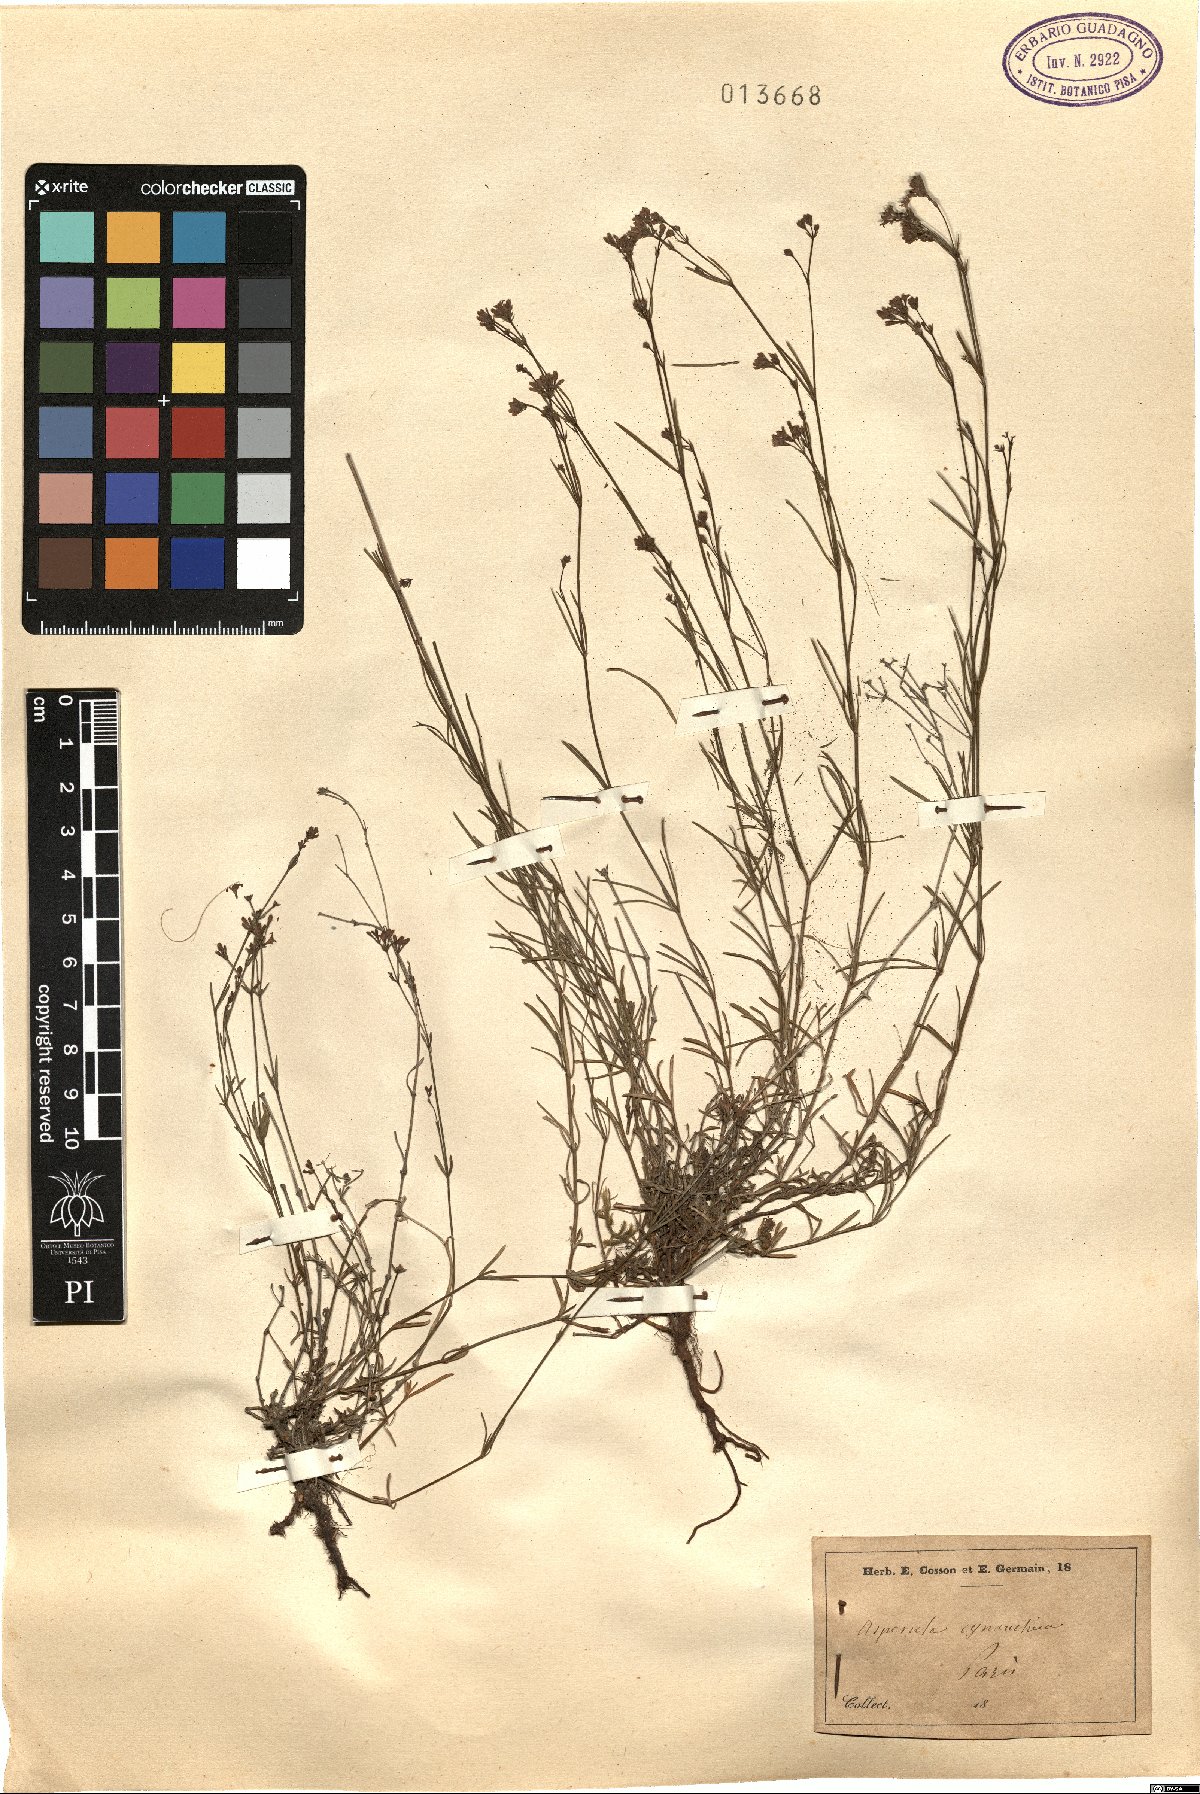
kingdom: Plantae
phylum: Tracheophyta
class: Magnoliopsida
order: Gentianales
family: Rubiaceae
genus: Cynanchica
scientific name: Cynanchica pyrenaica
